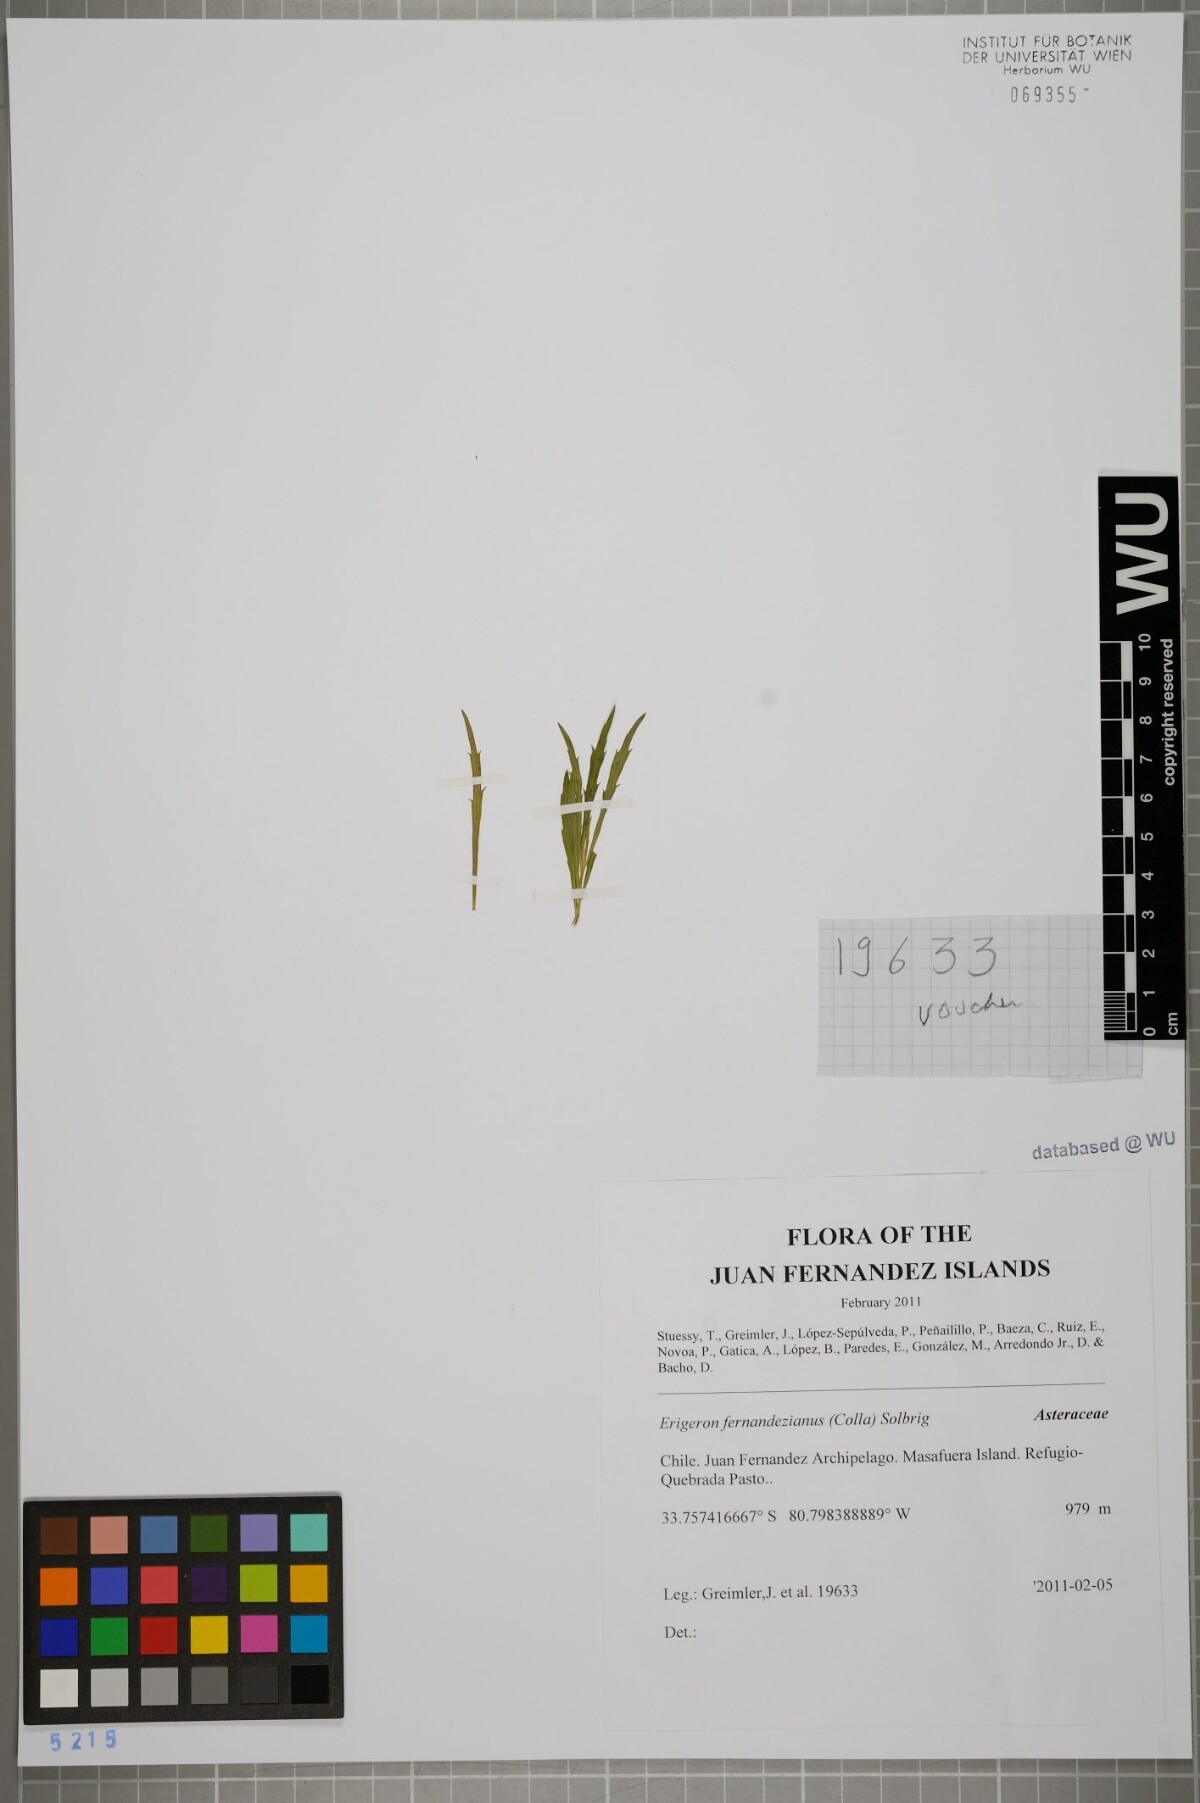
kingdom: Plantae
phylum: Tracheophyta
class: Magnoliopsida
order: Asterales
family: Asteraceae
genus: Erigeron
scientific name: Erigeron fernandezianus
